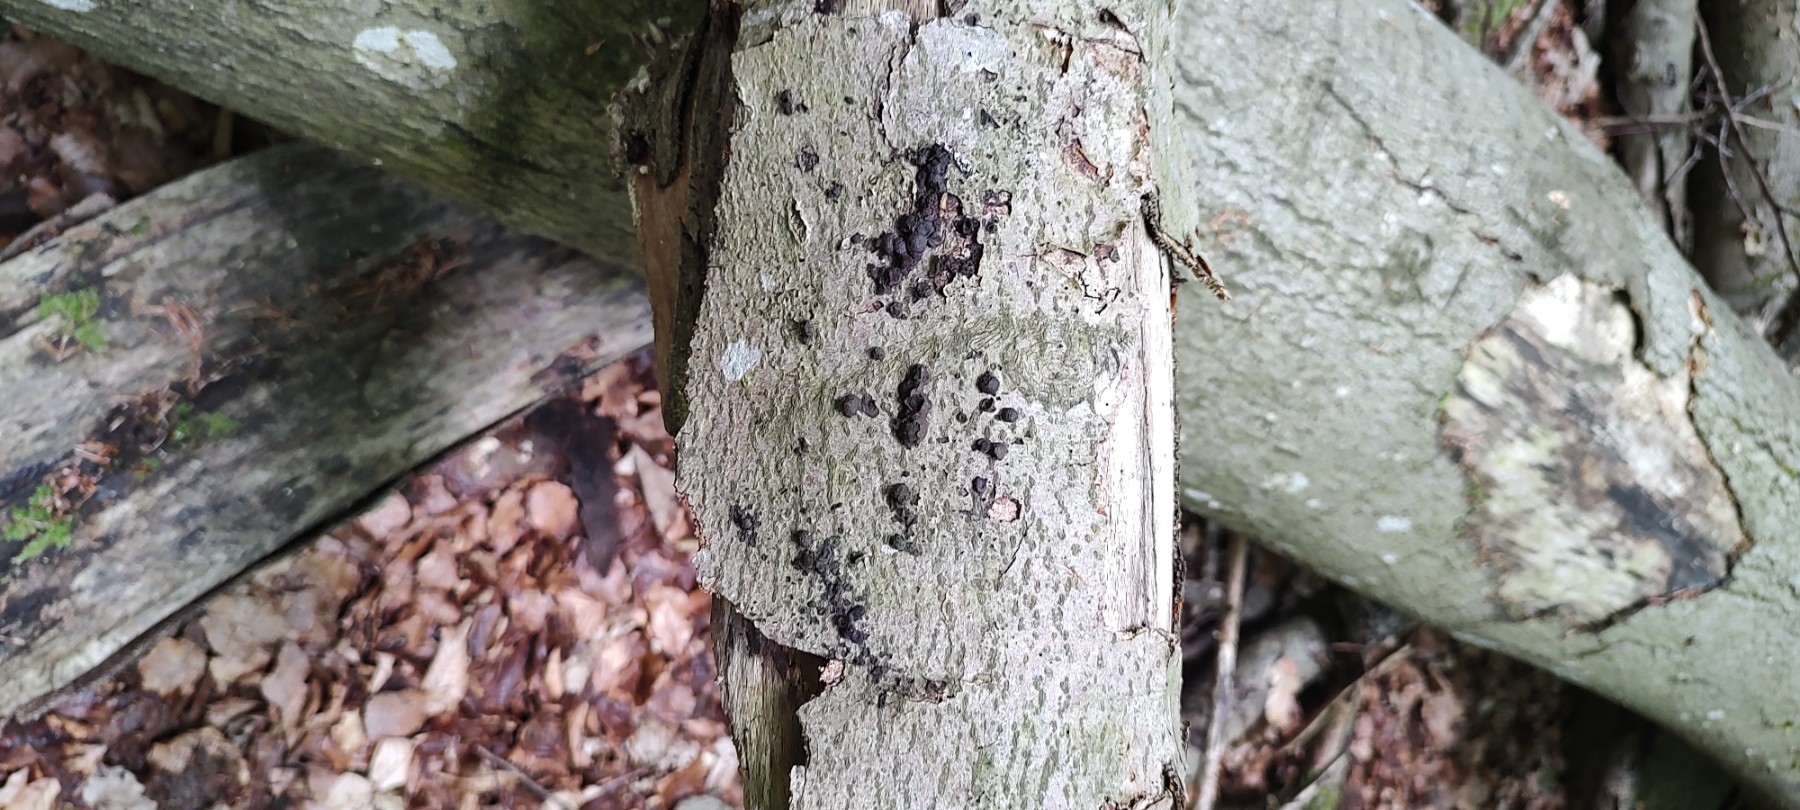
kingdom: Fungi
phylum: Ascomycota
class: Sordariomycetes
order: Xylariales
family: Hypoxylaceae
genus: Hypoxylon
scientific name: Hypoxylon fragiforme
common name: kuljordbær
